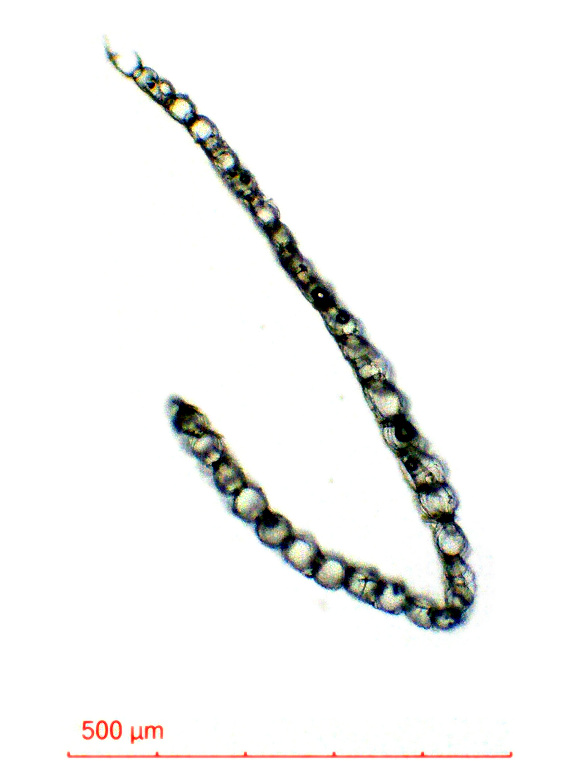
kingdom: Plantae
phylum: Bryophyta
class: Sphagnopsida
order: Sphagnales
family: Sphagnaceae
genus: Sphagnum
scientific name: Sphagnum perichaetiale
